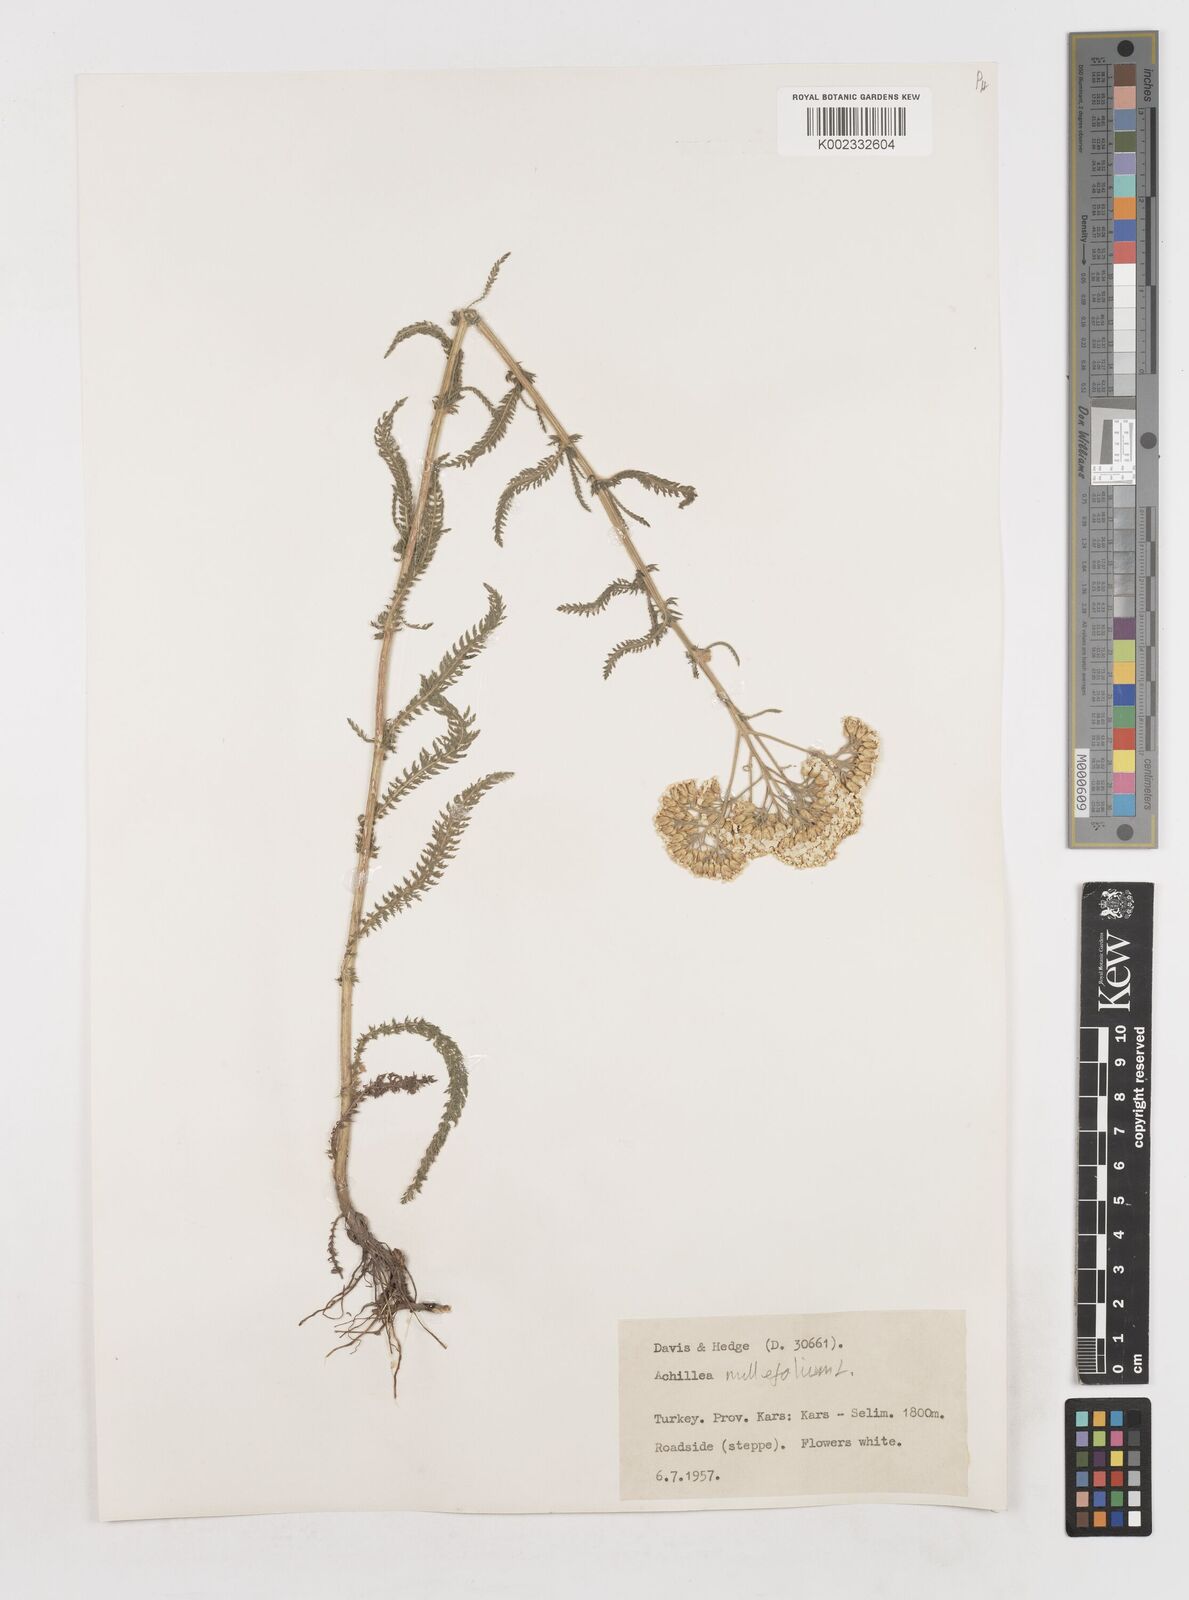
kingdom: Plantae
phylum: Tracheophyta
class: Magnoliopsida
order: Asterales
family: Asteraceae
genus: Achillea
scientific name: Achillea millefolium
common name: Yarrow
